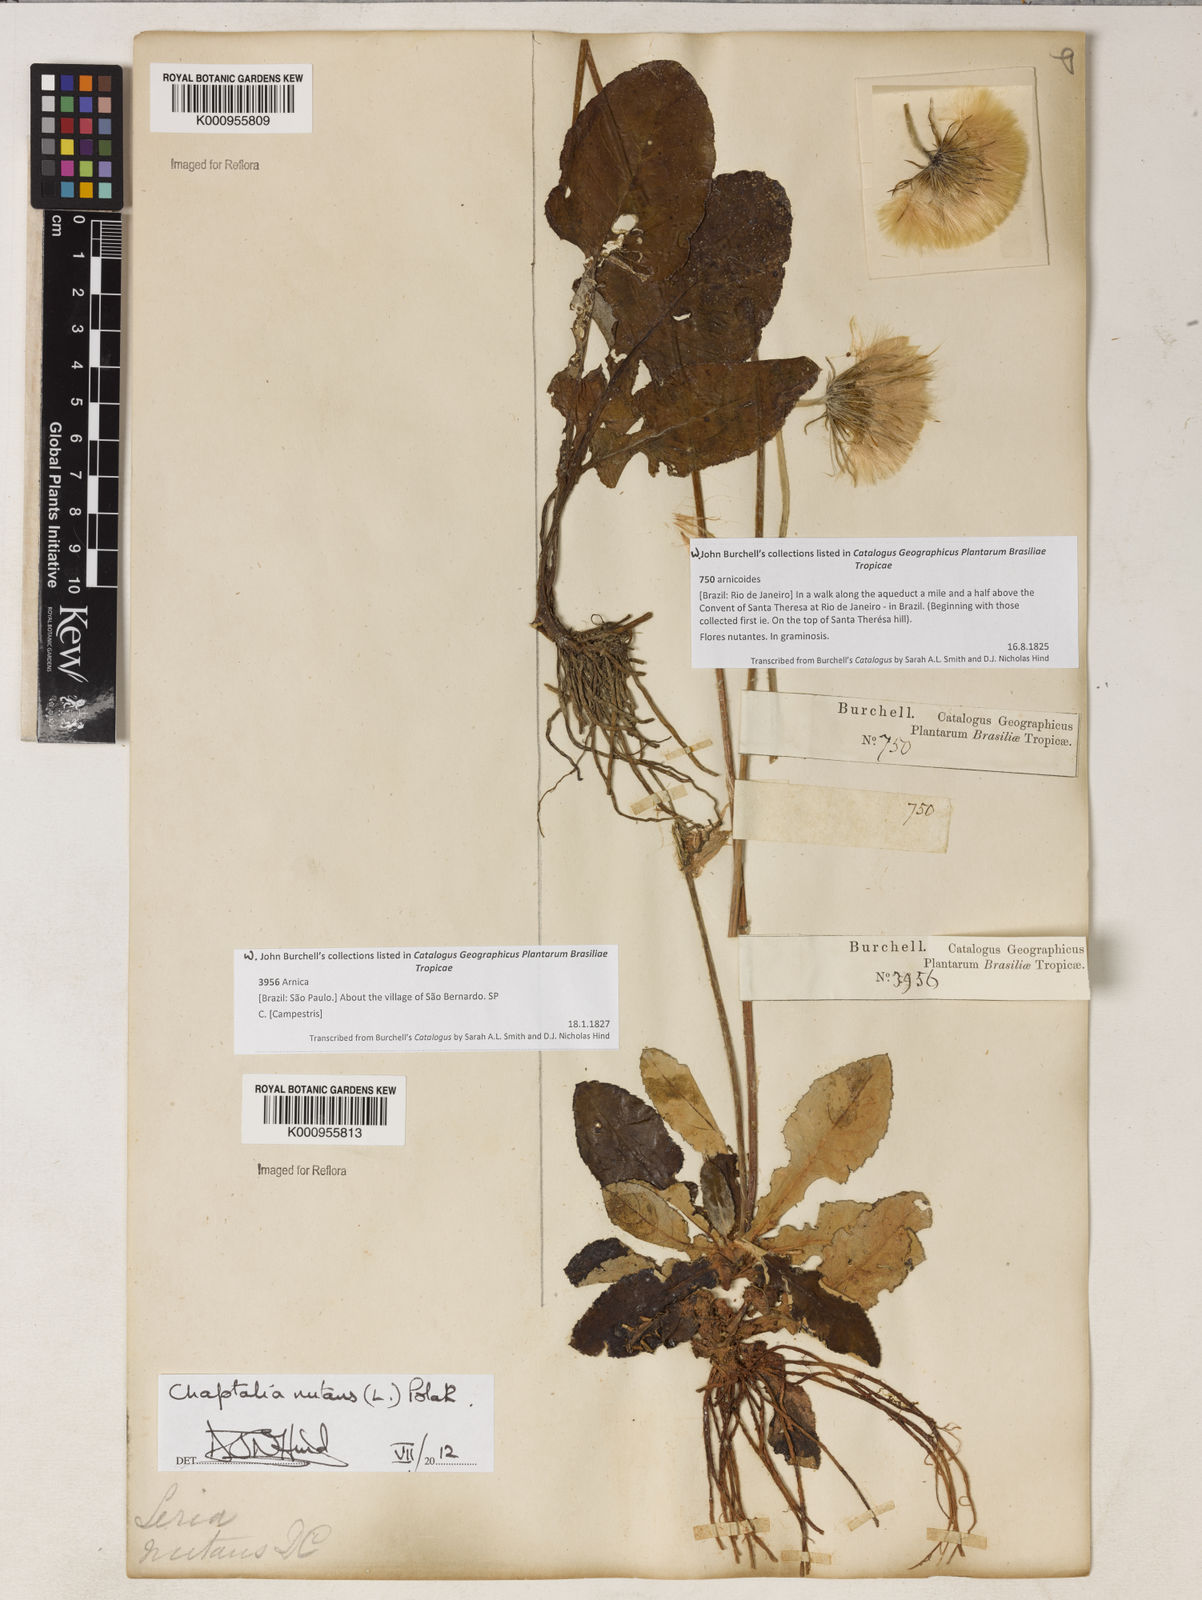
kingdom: Plantae
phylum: Tracheophyta
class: Magnoliopsida
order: Asterales
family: Asteraceae
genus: Chaptalia
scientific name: Chaptalia nutans
